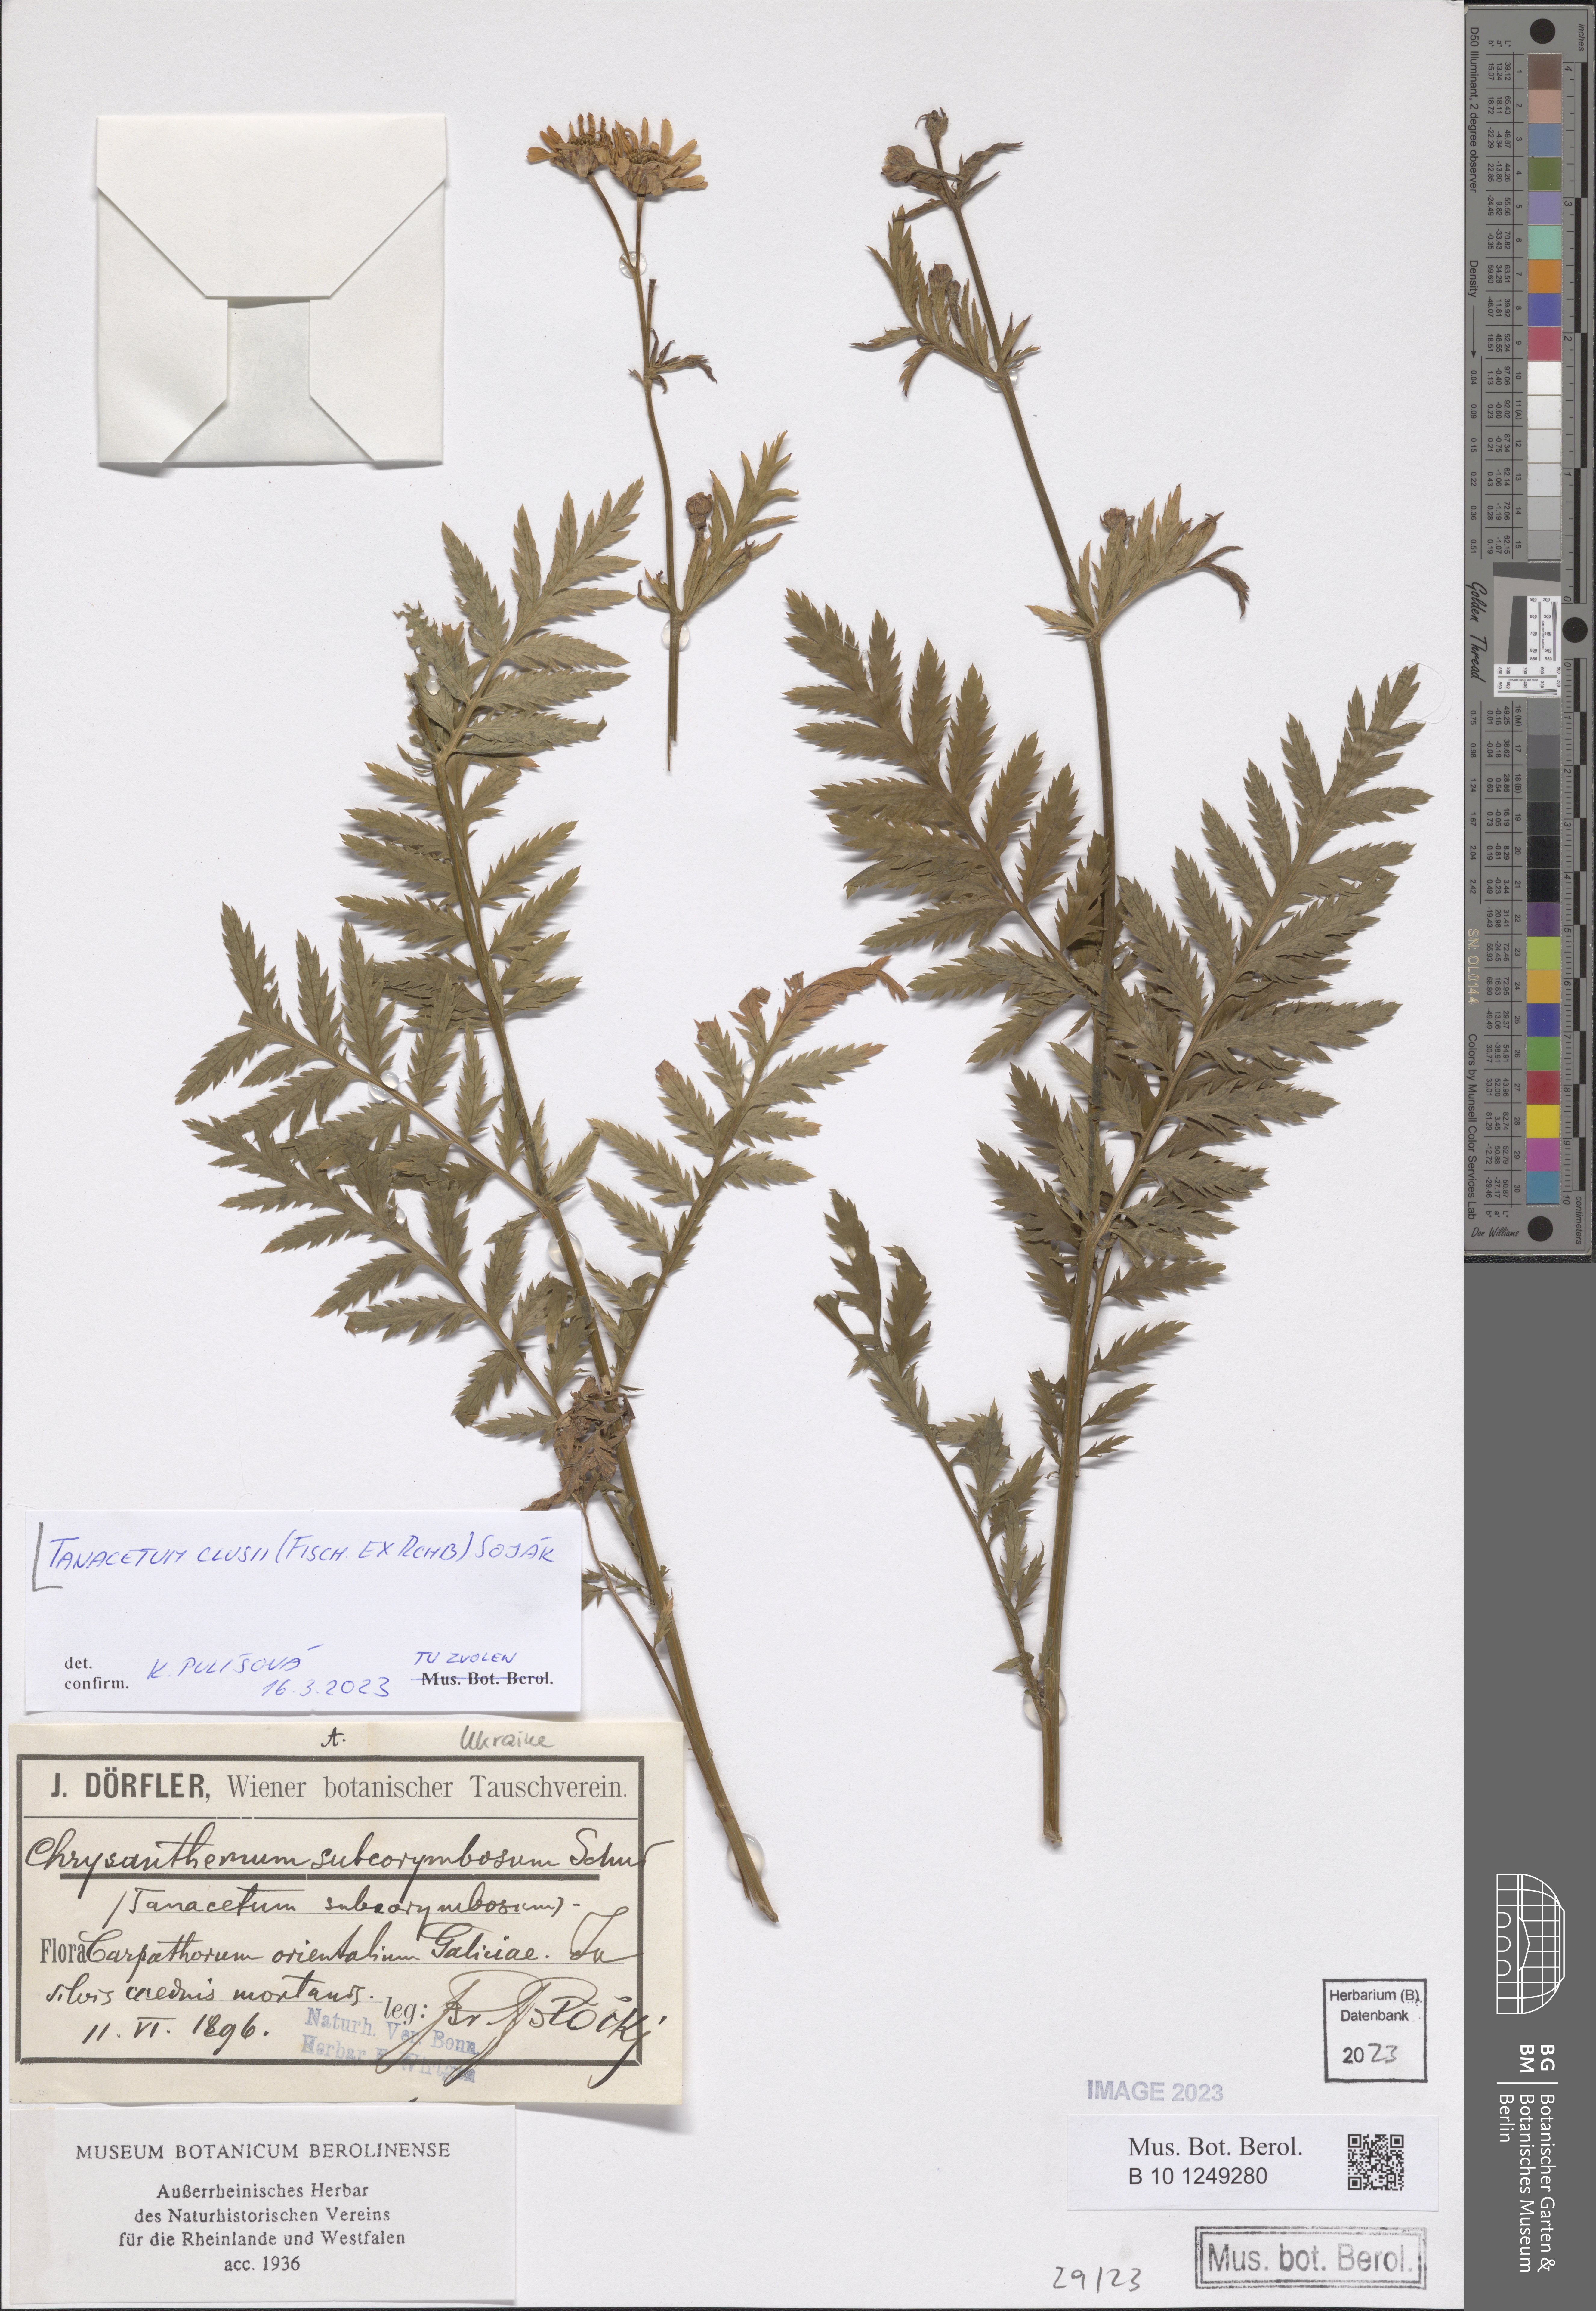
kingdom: Plantae
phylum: Tracheophyta
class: Magnoliopsida
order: Asterales
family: Asteraceae
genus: Tanacetum
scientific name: Tanacetum corymbosum
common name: Scentless feverfew
